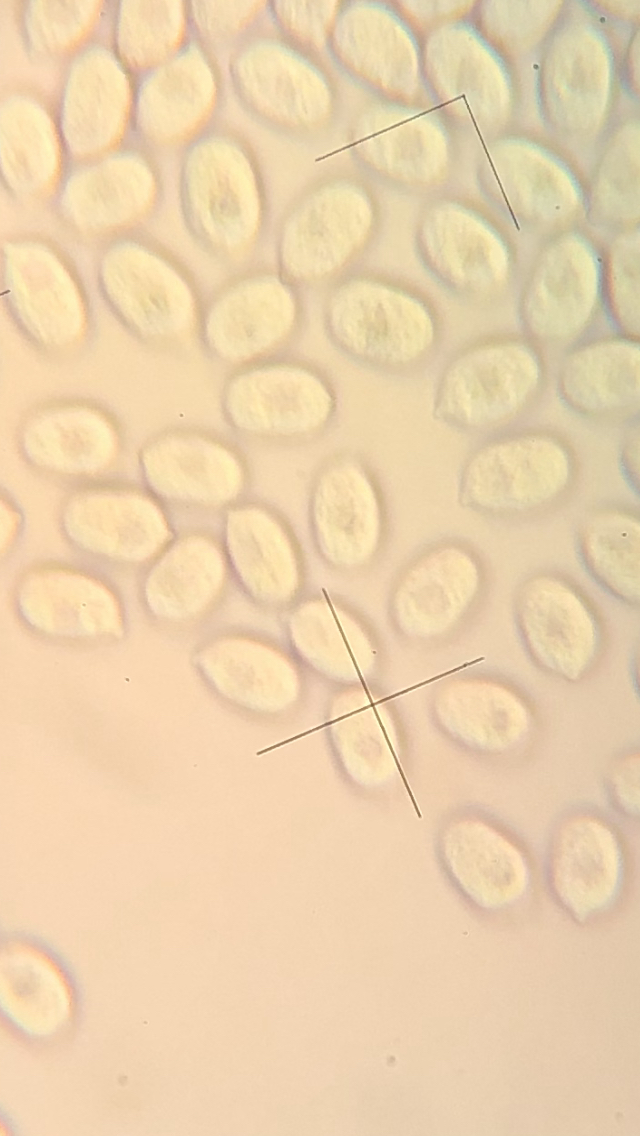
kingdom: Fungi
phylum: Basidiomycota
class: Agaricomycetes
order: Agaricales
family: Mycenaceae
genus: Mycena
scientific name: Mycena galericulata
